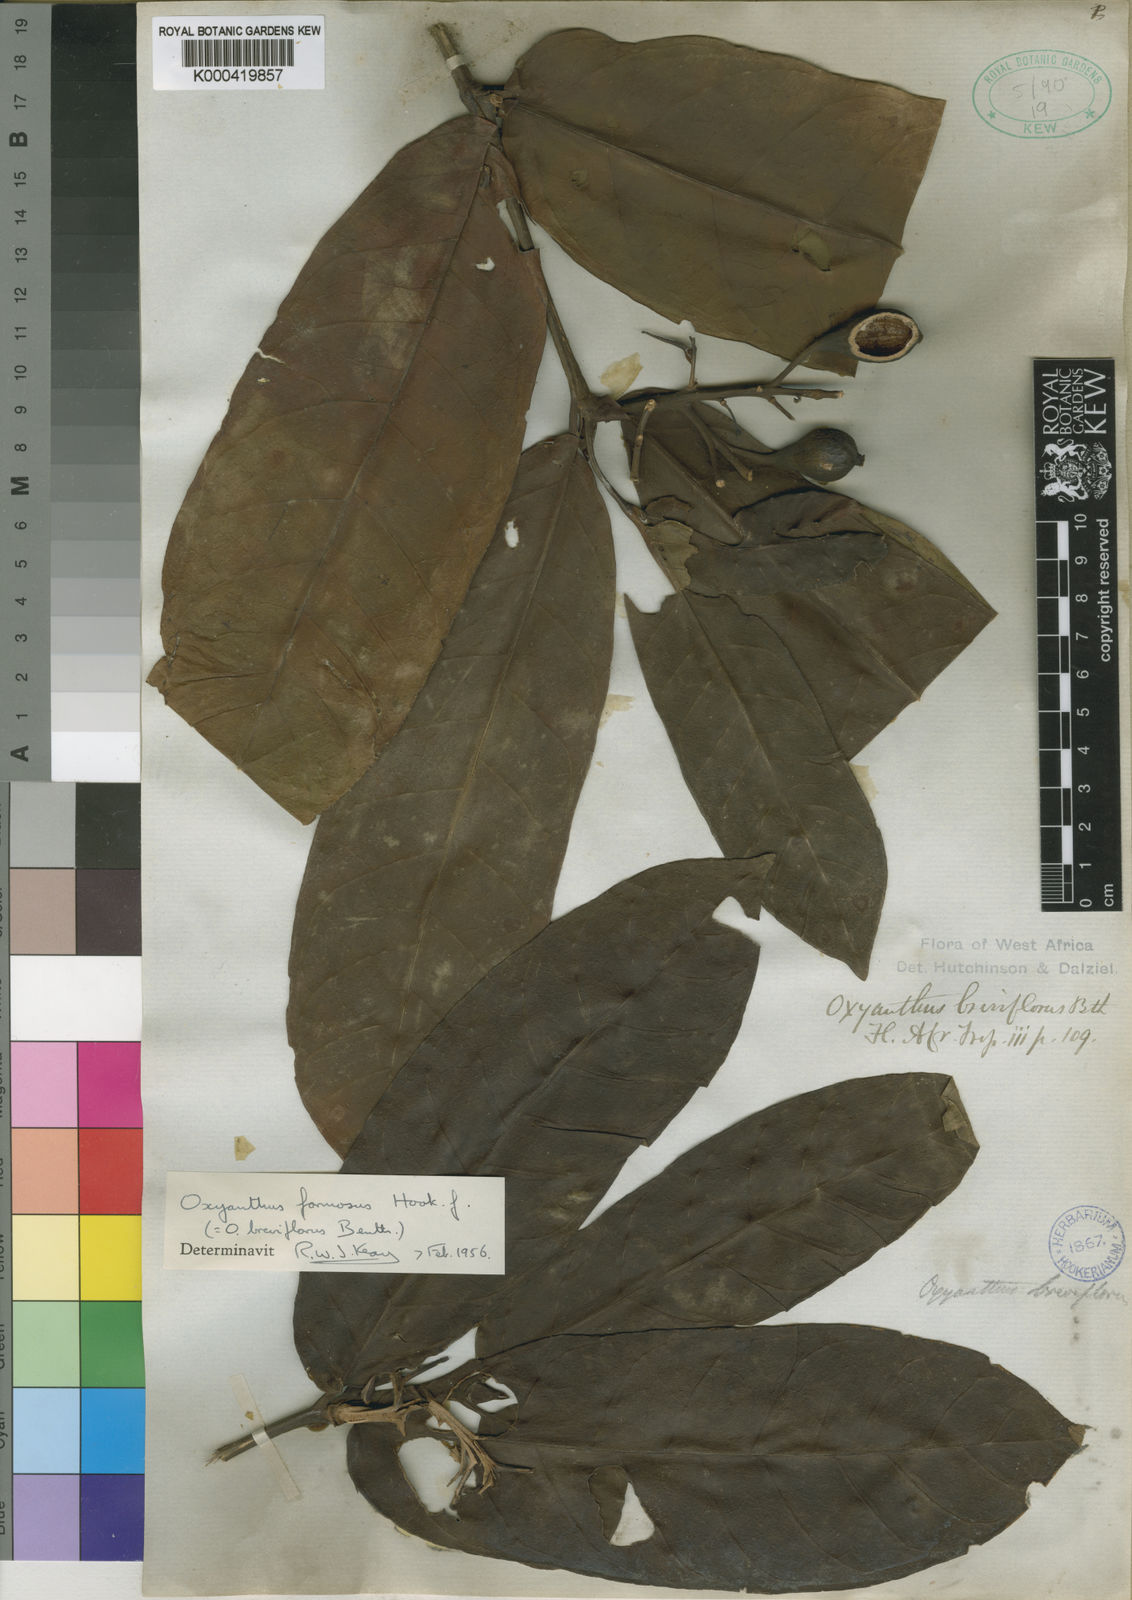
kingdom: Plantae
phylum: Tracheophyta
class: Magnoliopsida
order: Gentianales
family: Rubiaceae
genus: Oxyanthus
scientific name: Oxyanthus formosus
